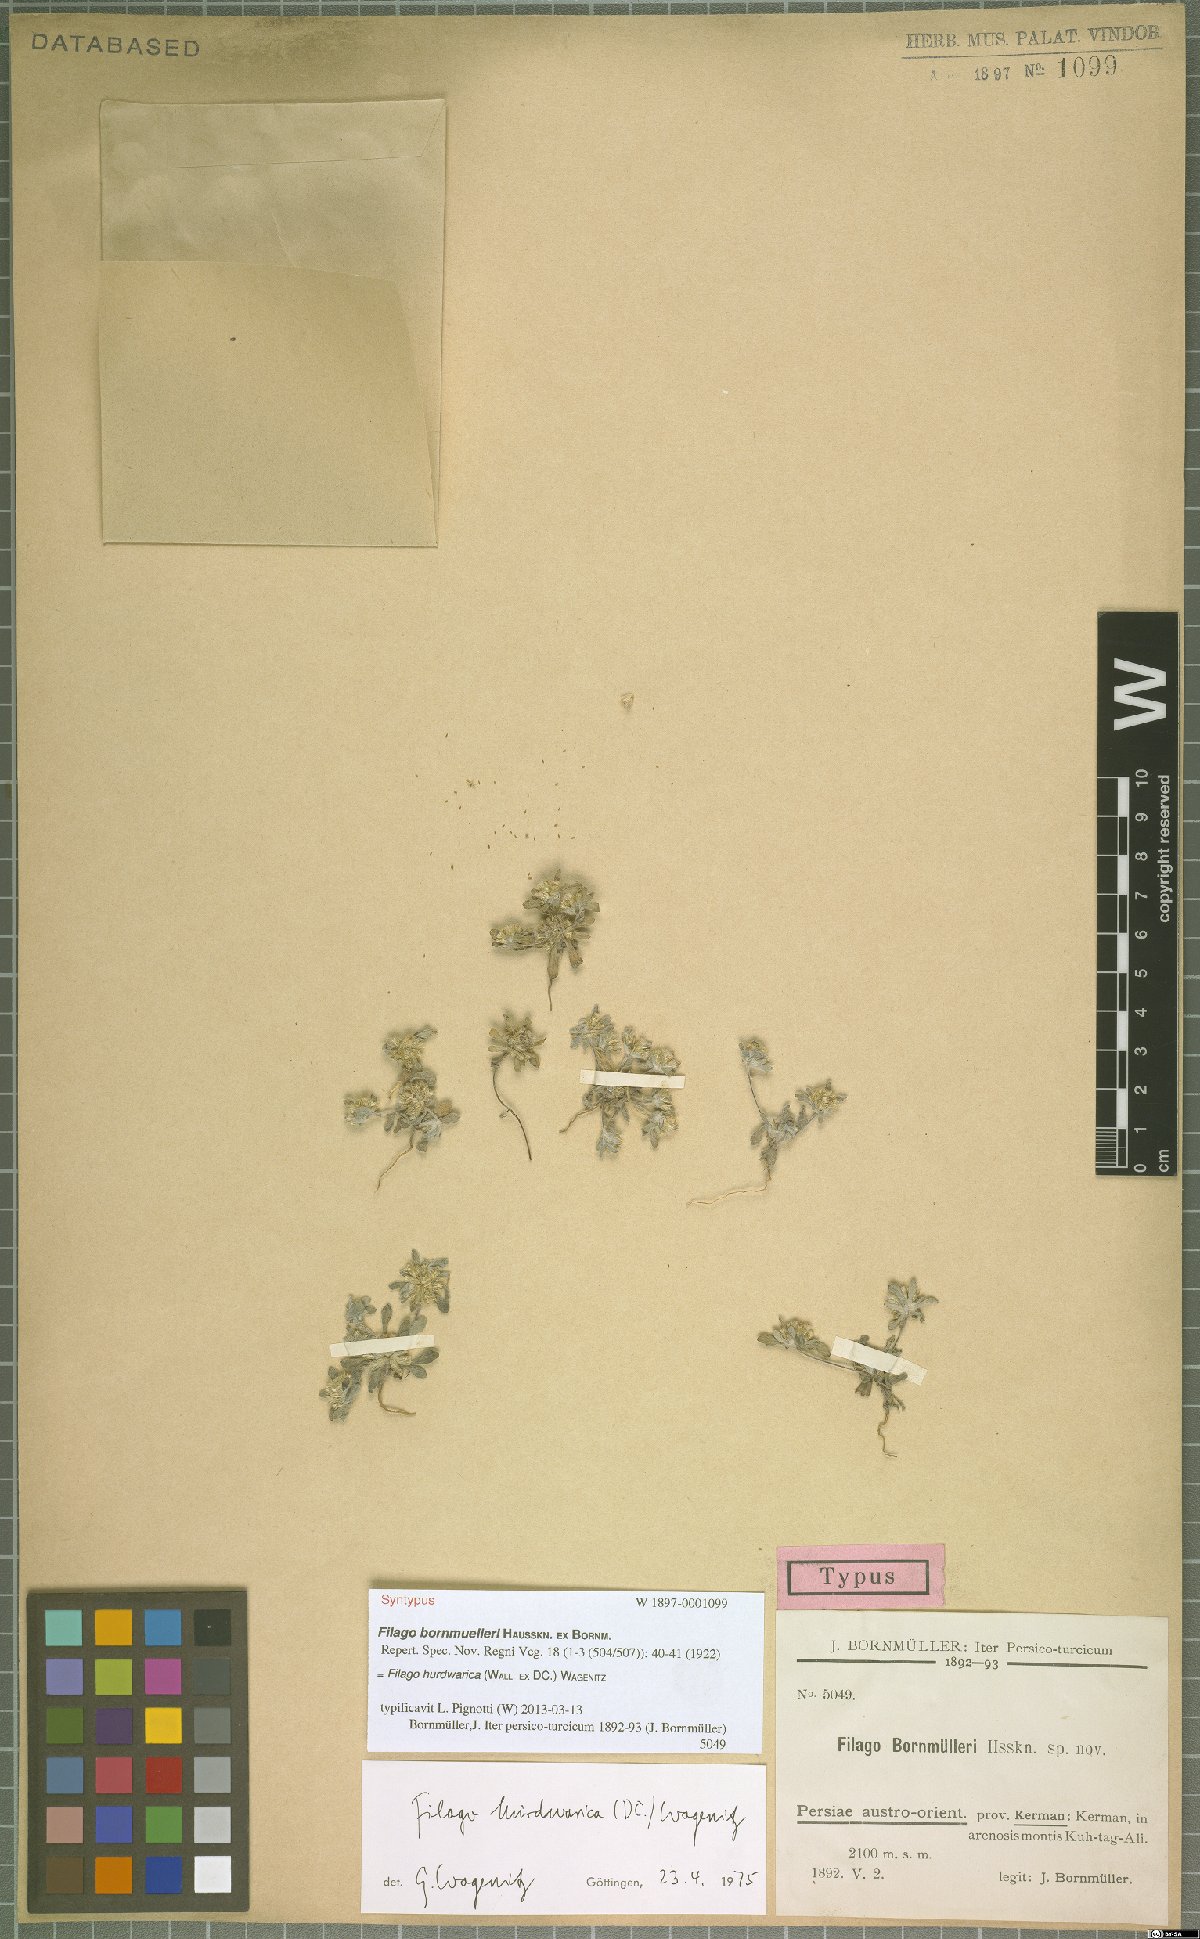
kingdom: Plantae
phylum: Tracheophyta
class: Magnoliopsida
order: Asterales
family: Asteraceae
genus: Filago
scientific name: Filago hurdwarica
